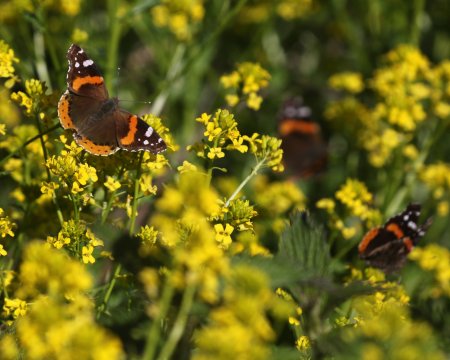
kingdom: Animalia
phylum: Arthropoda
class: Insecta
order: Lepidoptera
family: Nymphalidae
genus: Vanessa
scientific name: Vanessa atalanta
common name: Red Admiral
